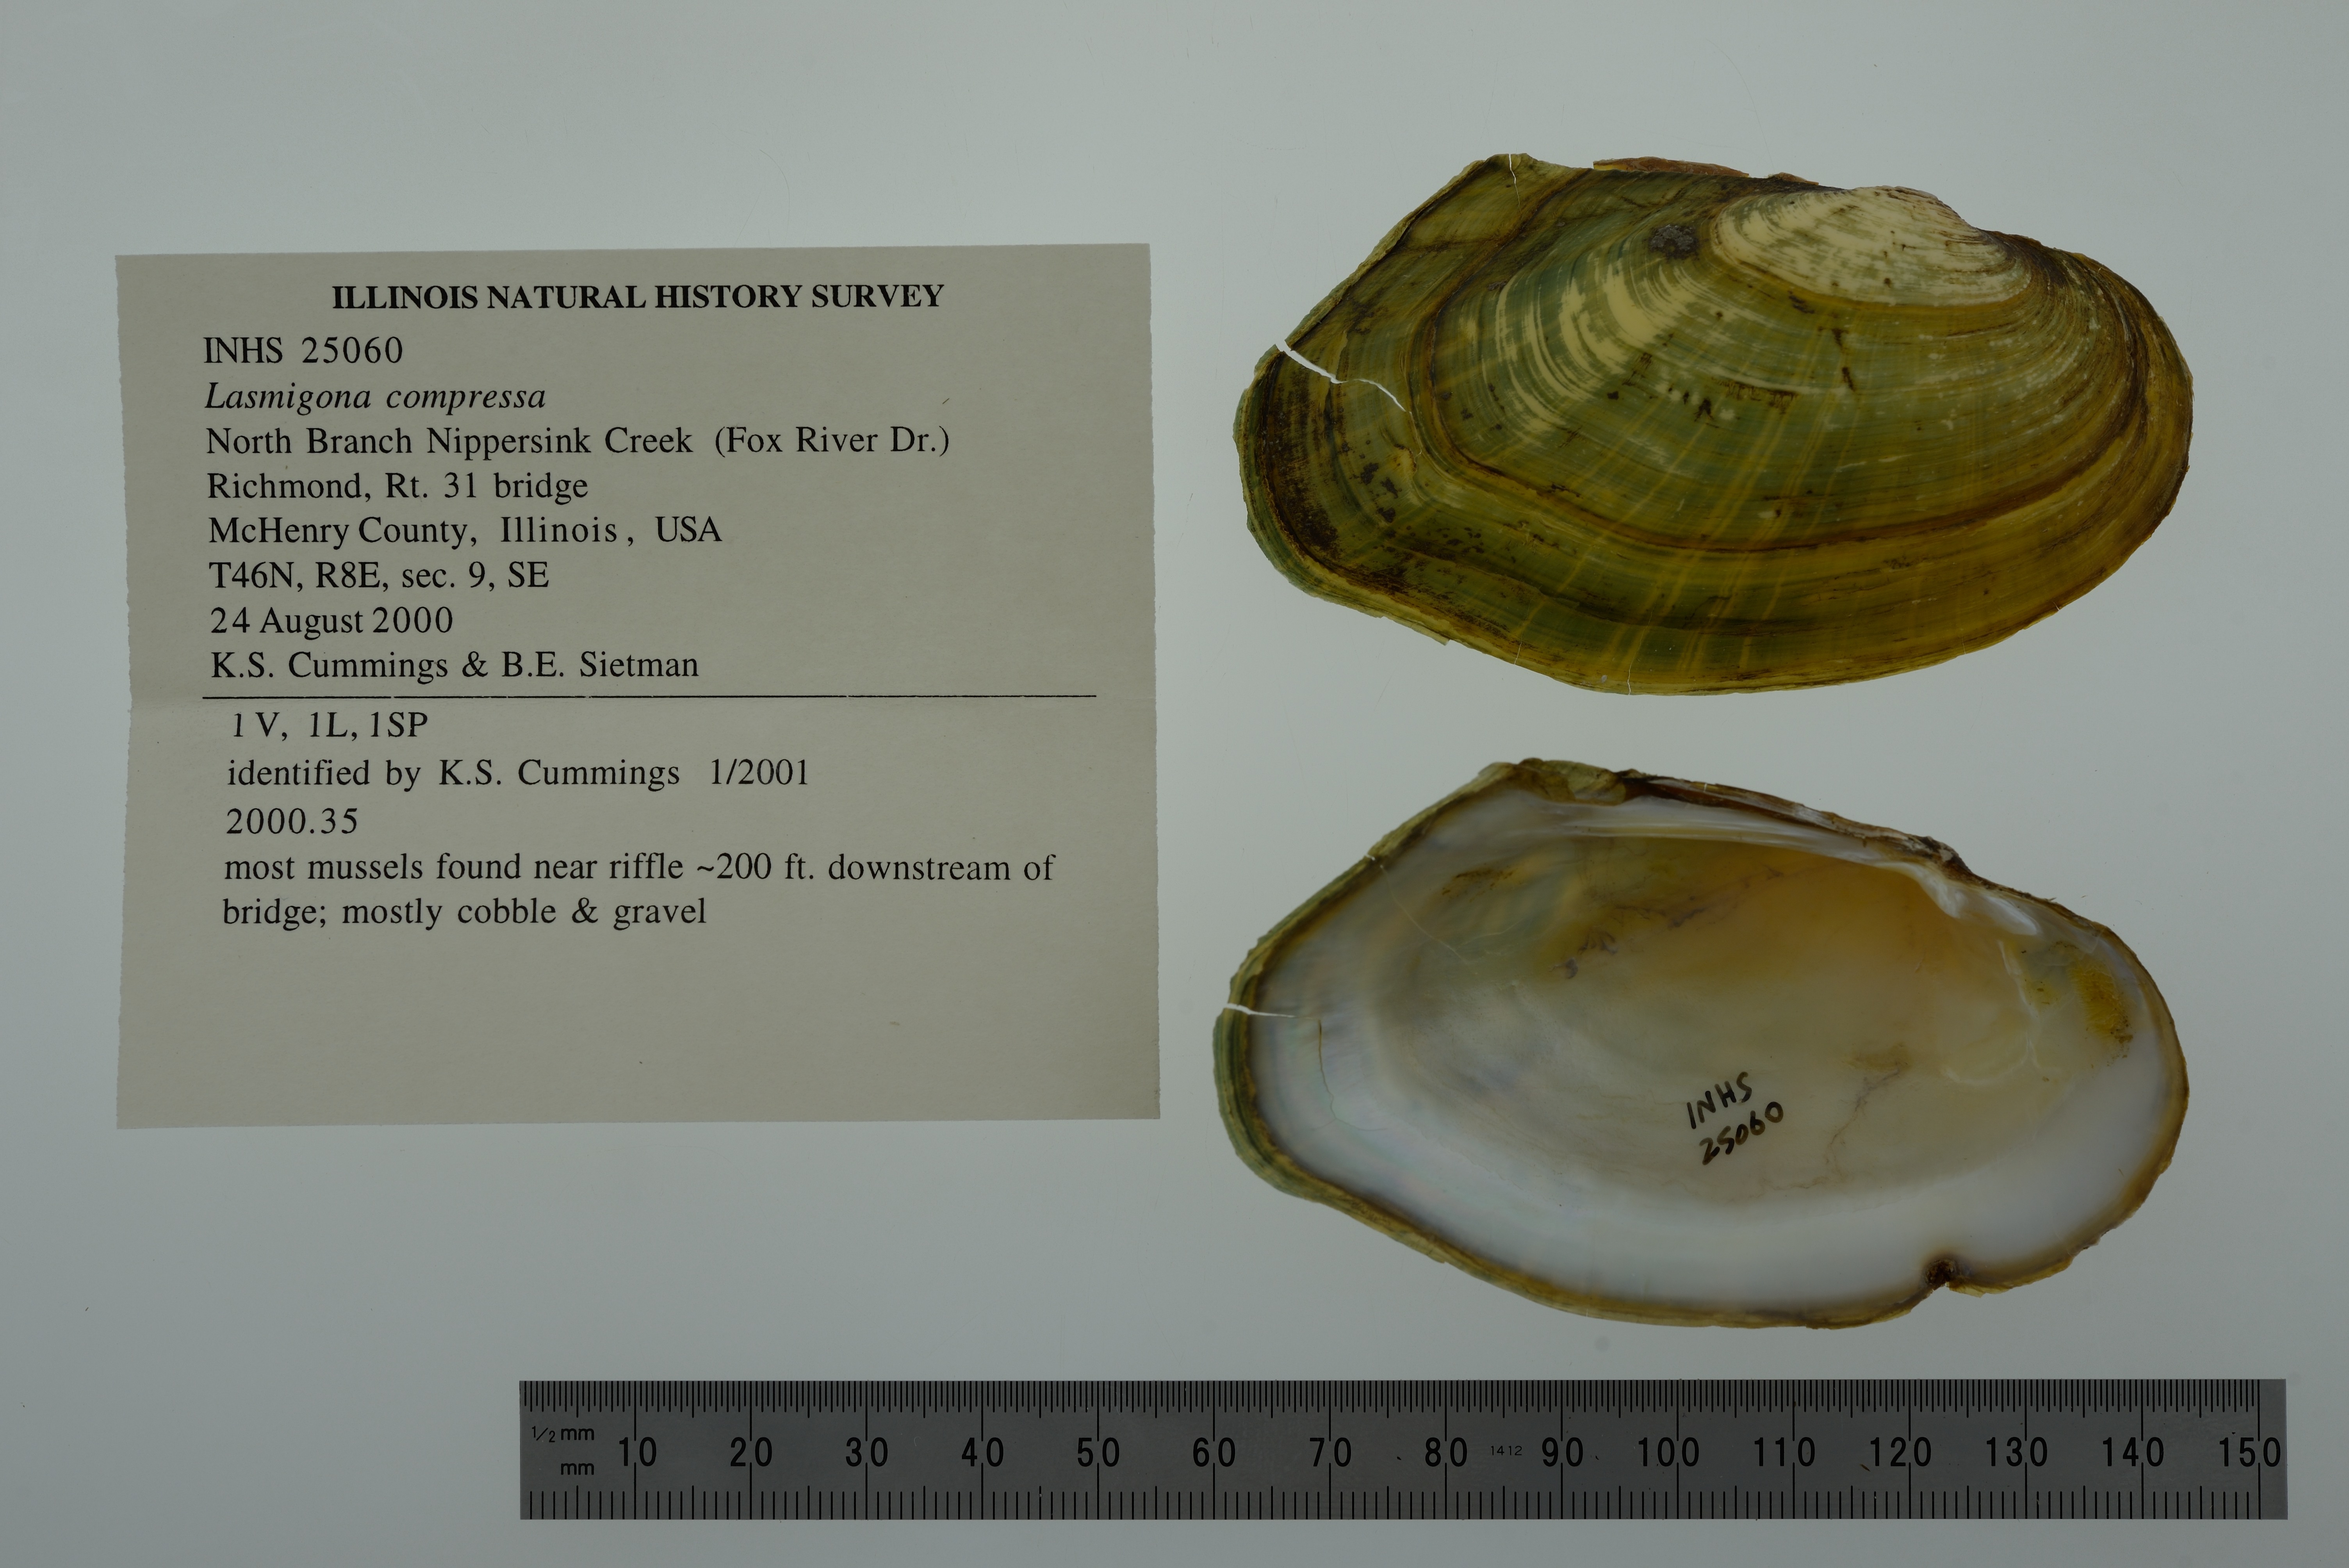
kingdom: Animalia
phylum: Mollusca
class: Bivalvia
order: Unionida
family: Unionidae
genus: Lasmigona
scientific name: Lasmigona compressa
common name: Creek heelsplitter
